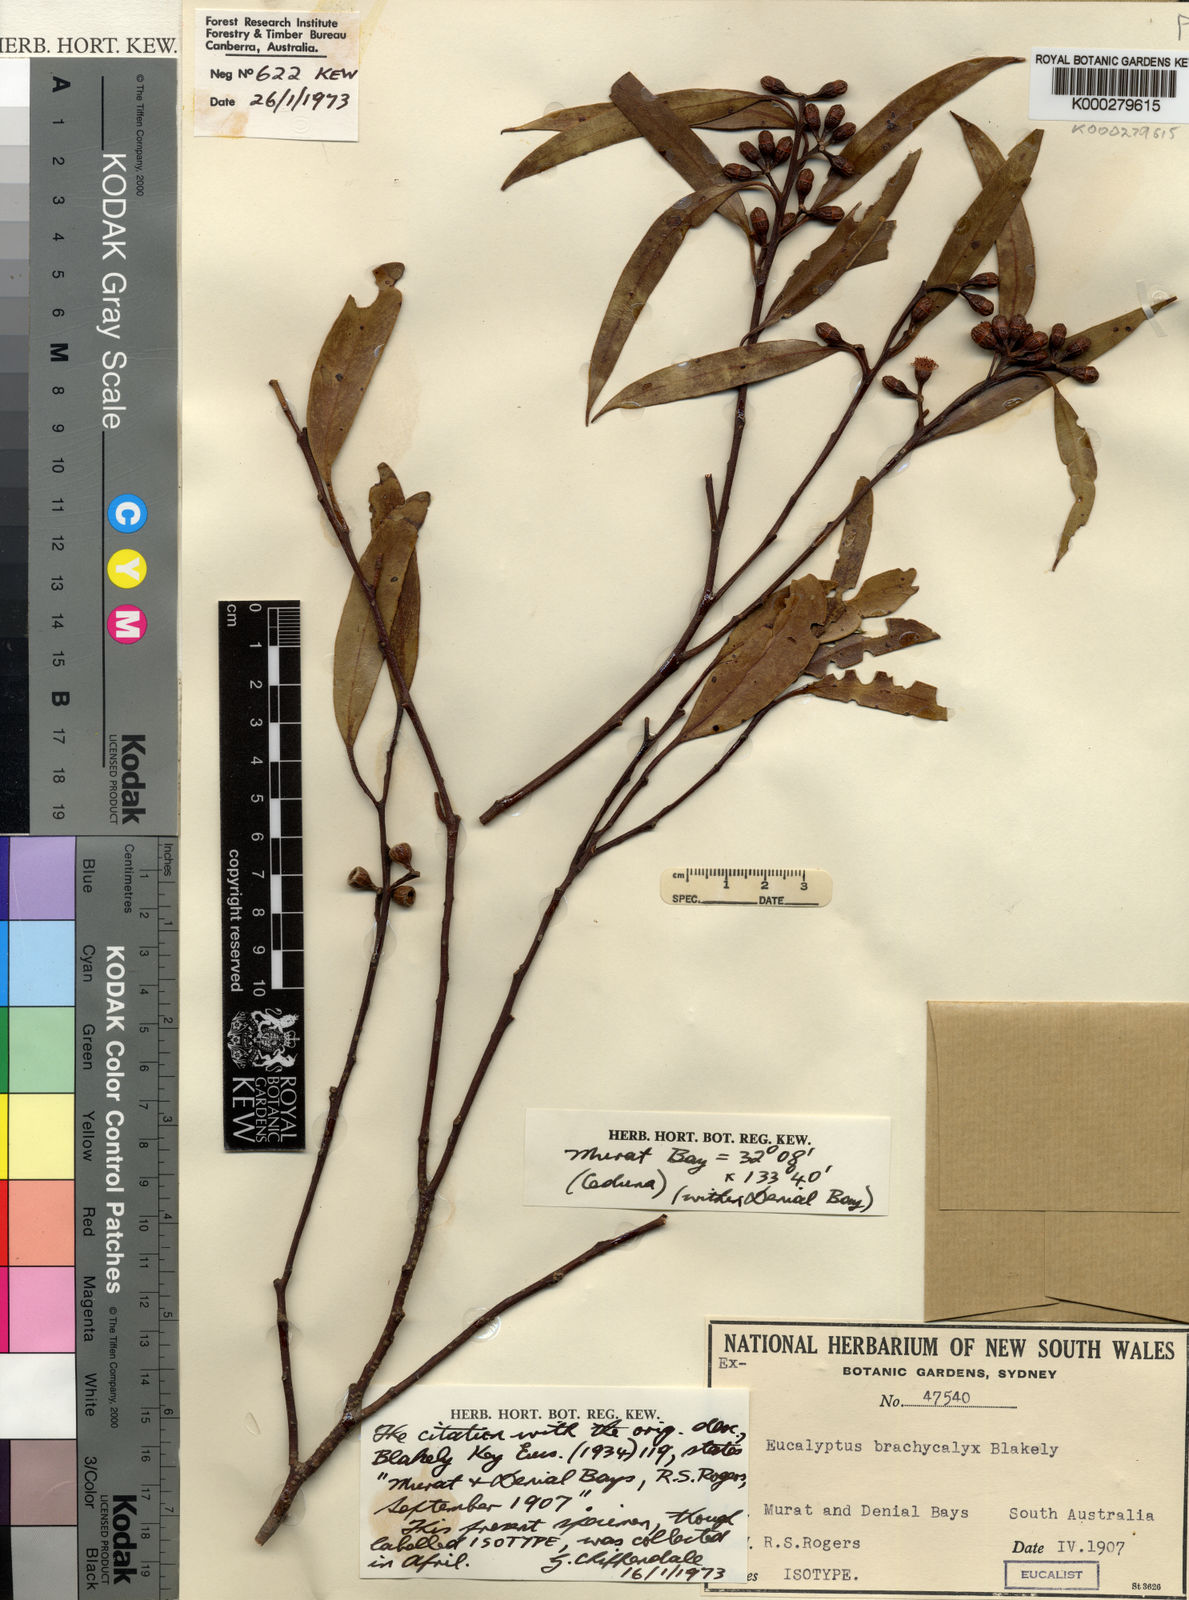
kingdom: Plantae
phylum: Tracheophyta
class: Magnoliopsida
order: Myrtales
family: Myrtaceae
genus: Eucalyptus
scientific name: Eucalyptus brachycalyx
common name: Chindoo mallee
